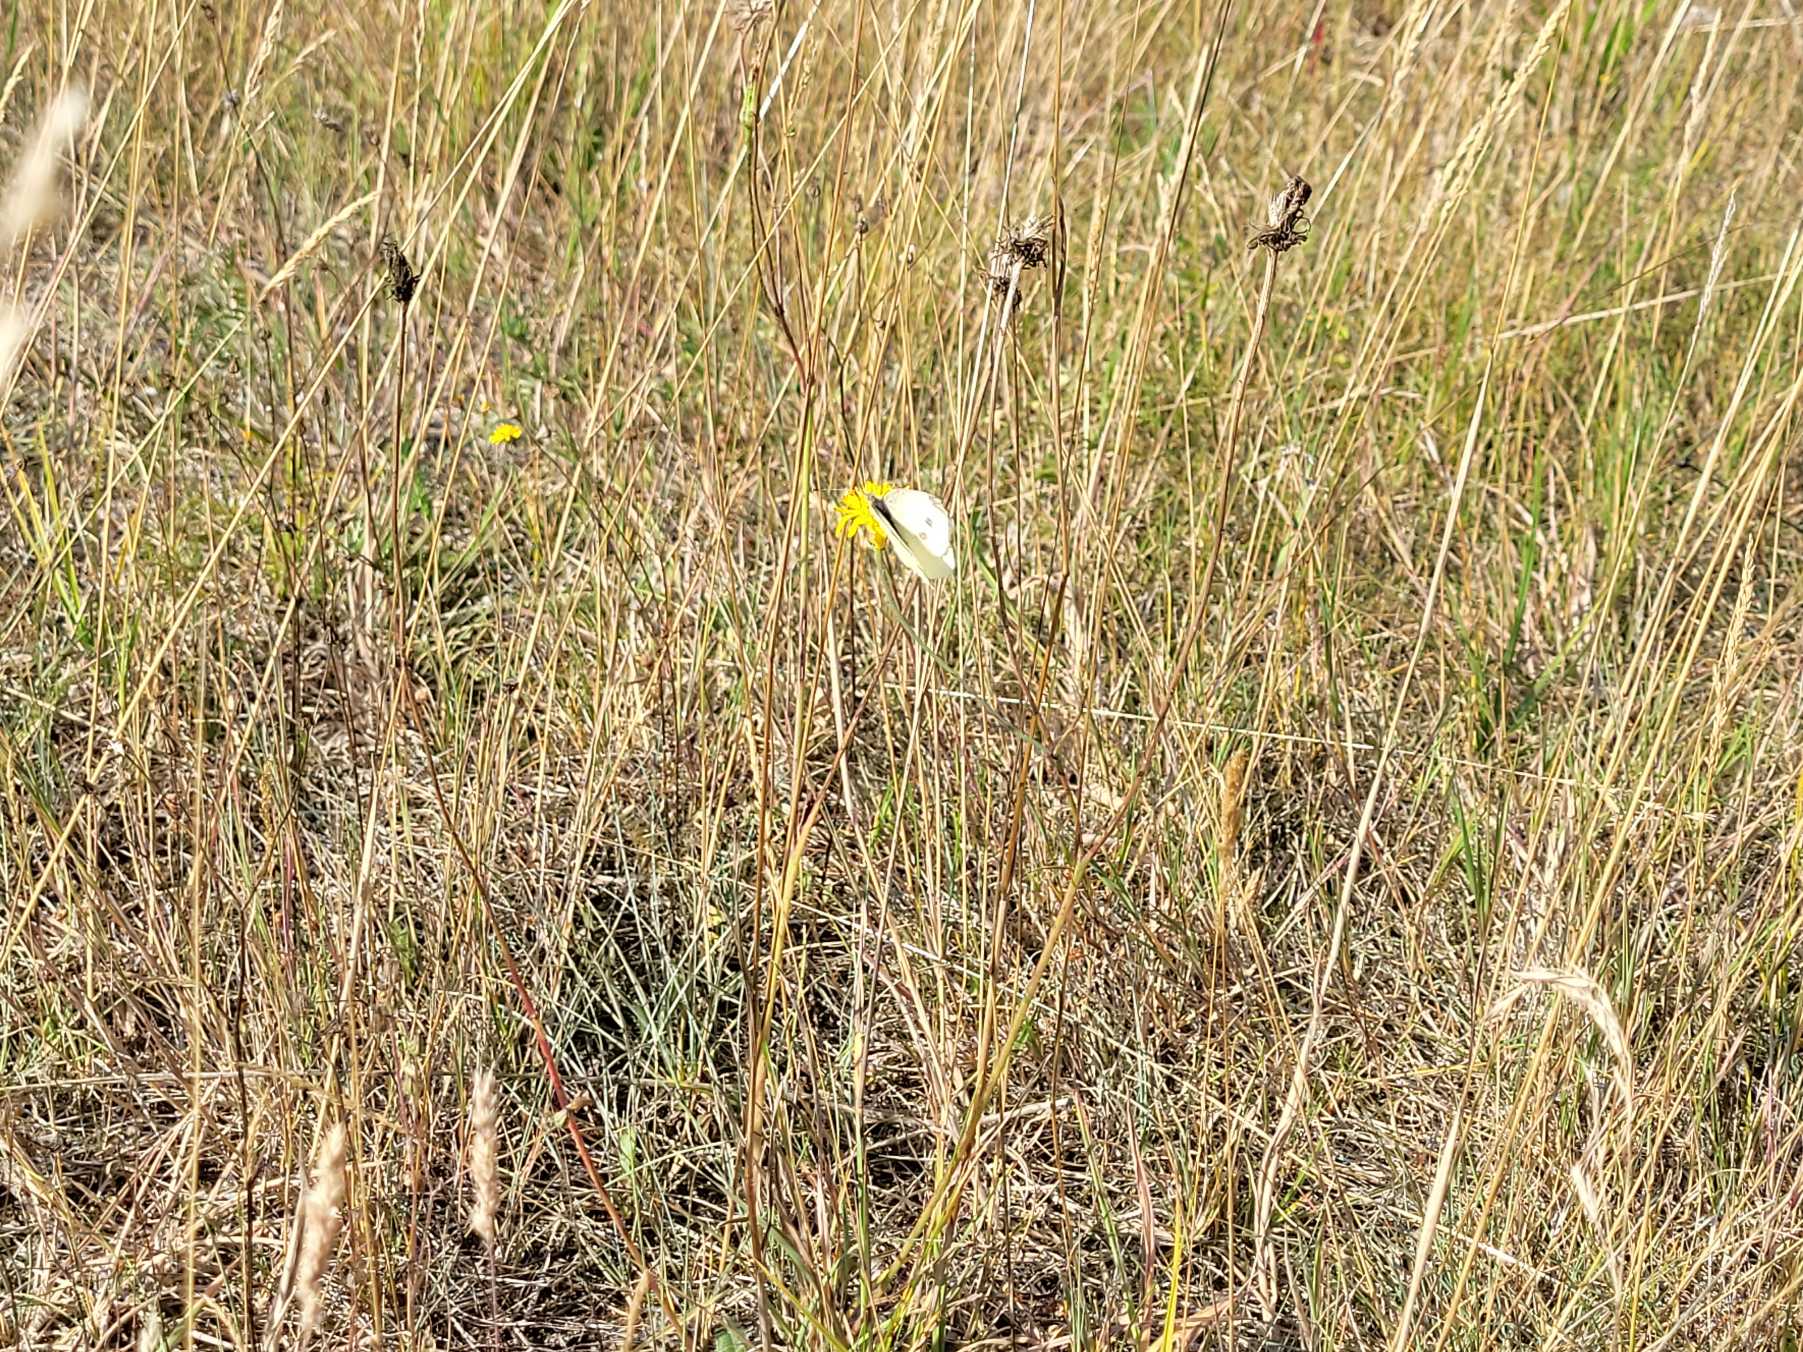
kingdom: Animalia
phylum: Arthropoda
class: Insecta
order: Lepidoptera
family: Pieridae
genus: Pieris
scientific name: Pieris rapae
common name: Lille kålsommerfugl
